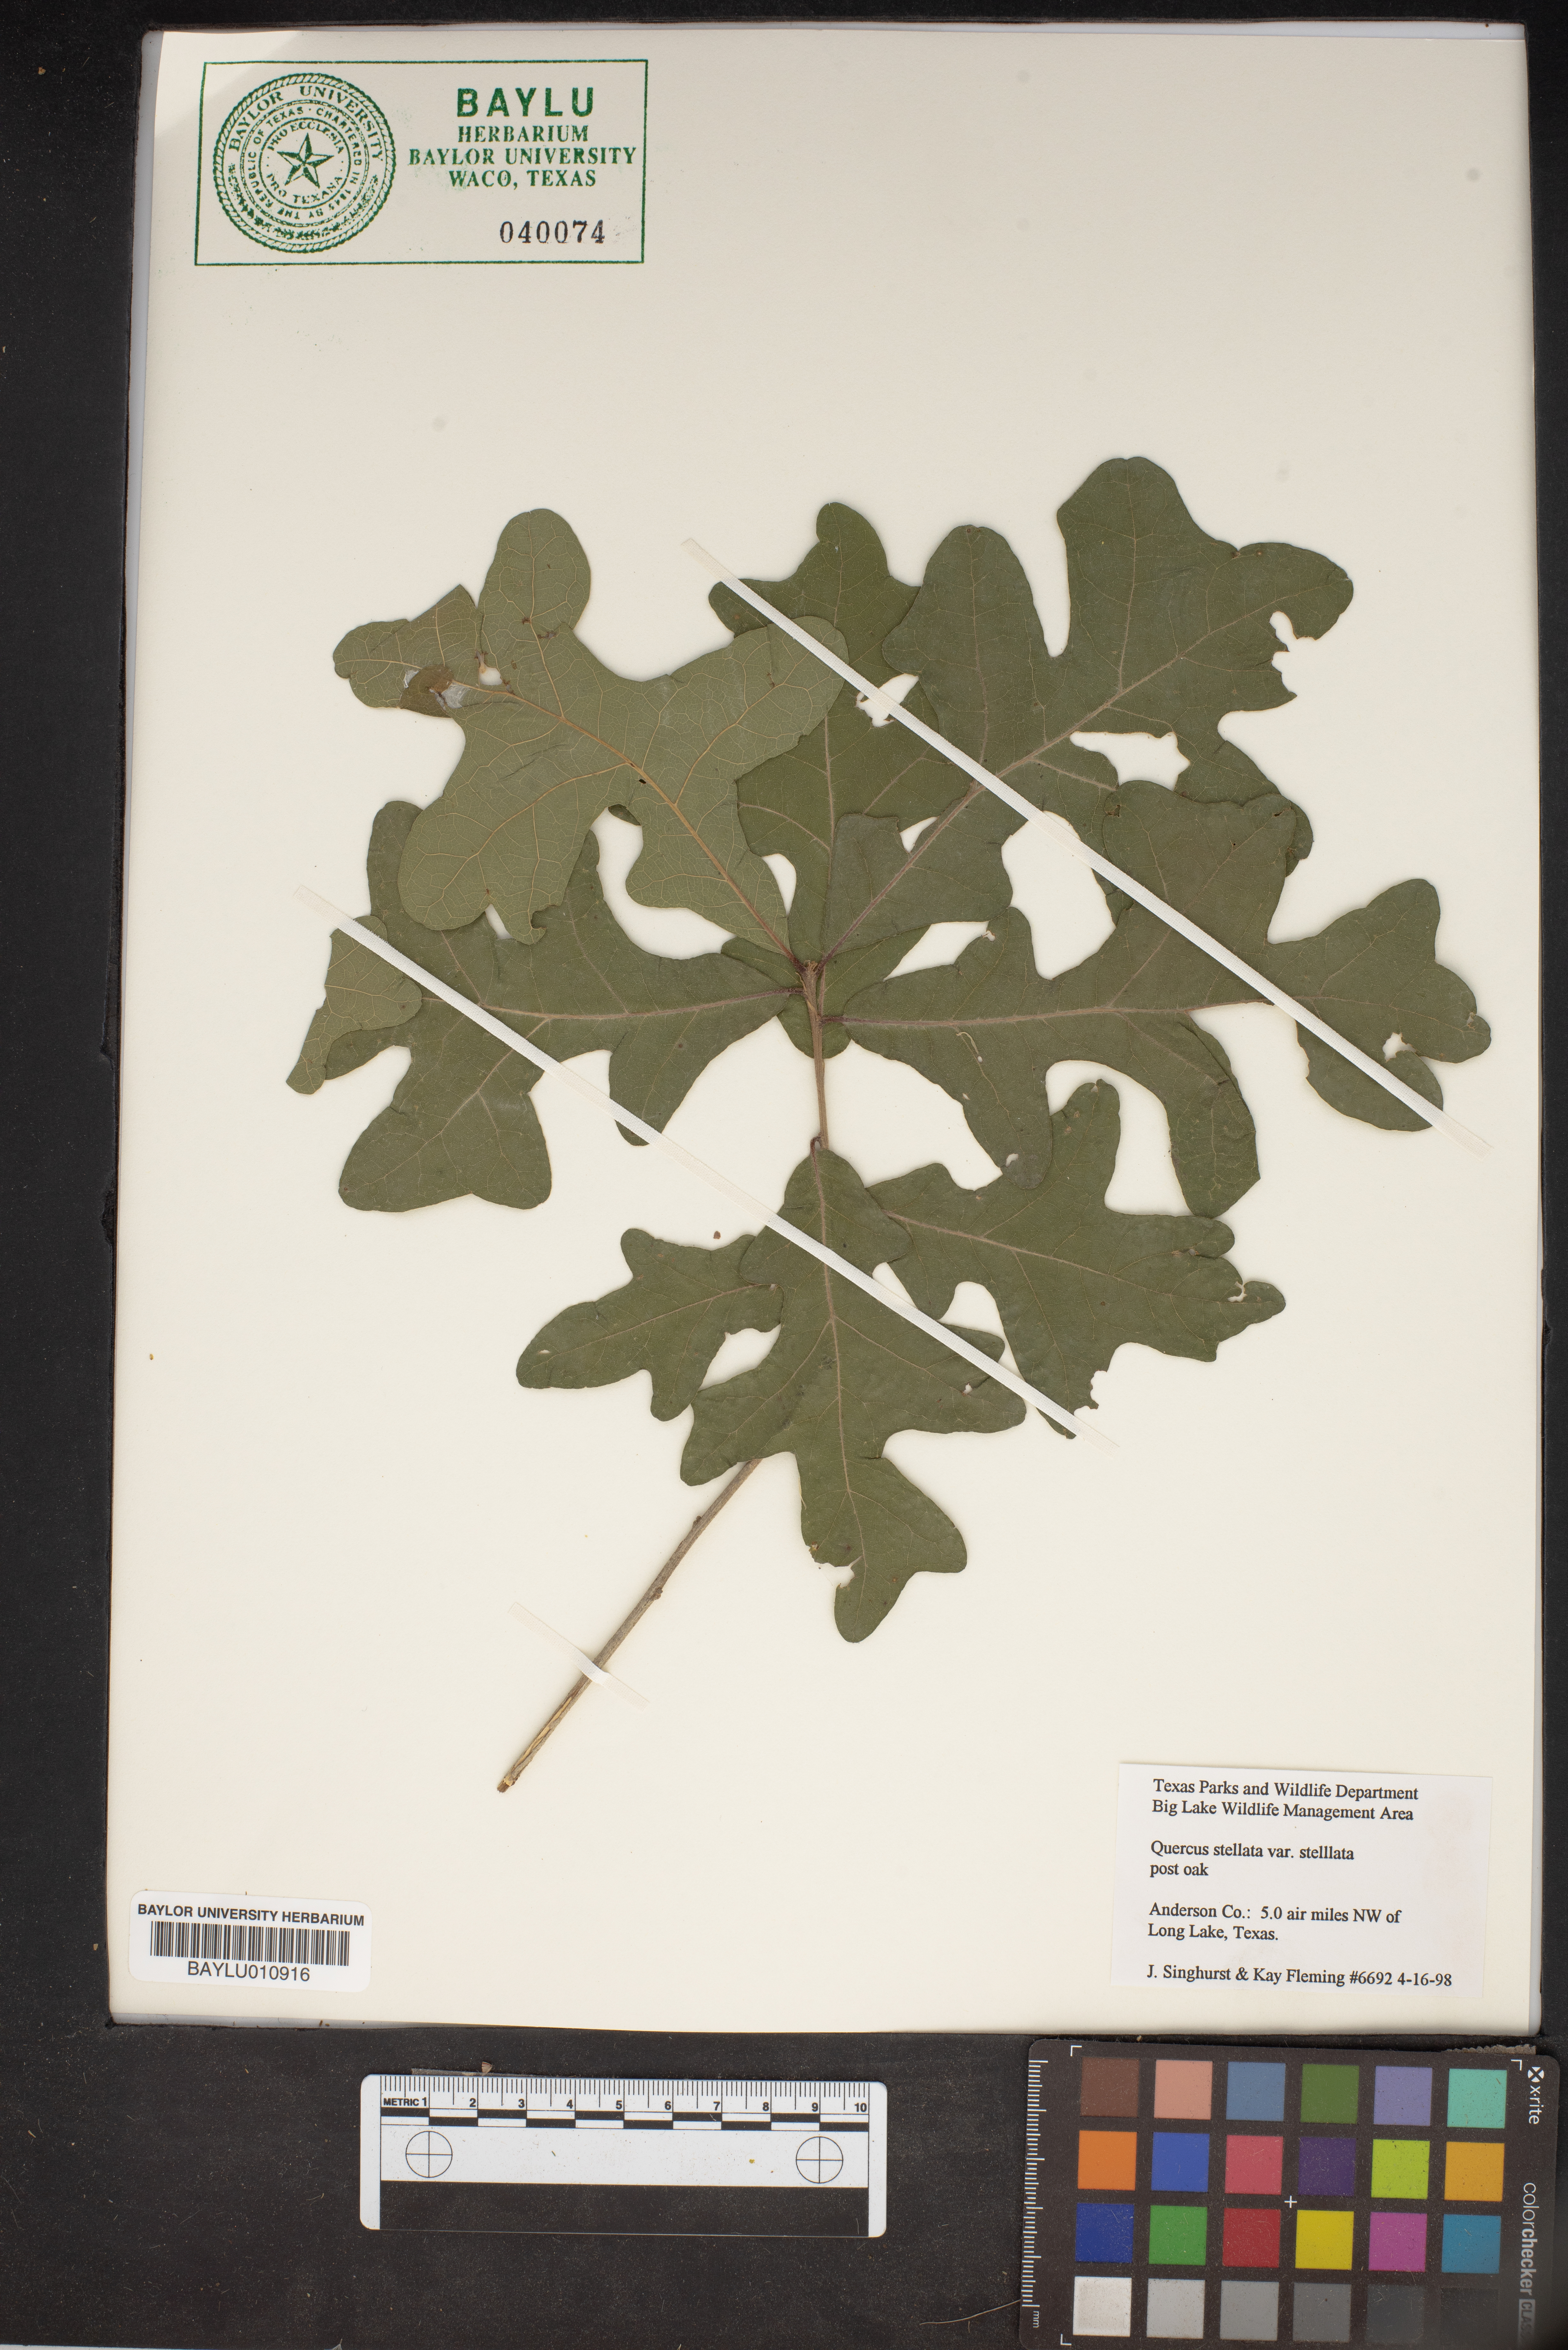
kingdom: Plantae
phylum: Tracheophyta
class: Magnoliopsida
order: Fagales
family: Fagaceae
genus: Quercus
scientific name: Quercus stellata
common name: Post oak
